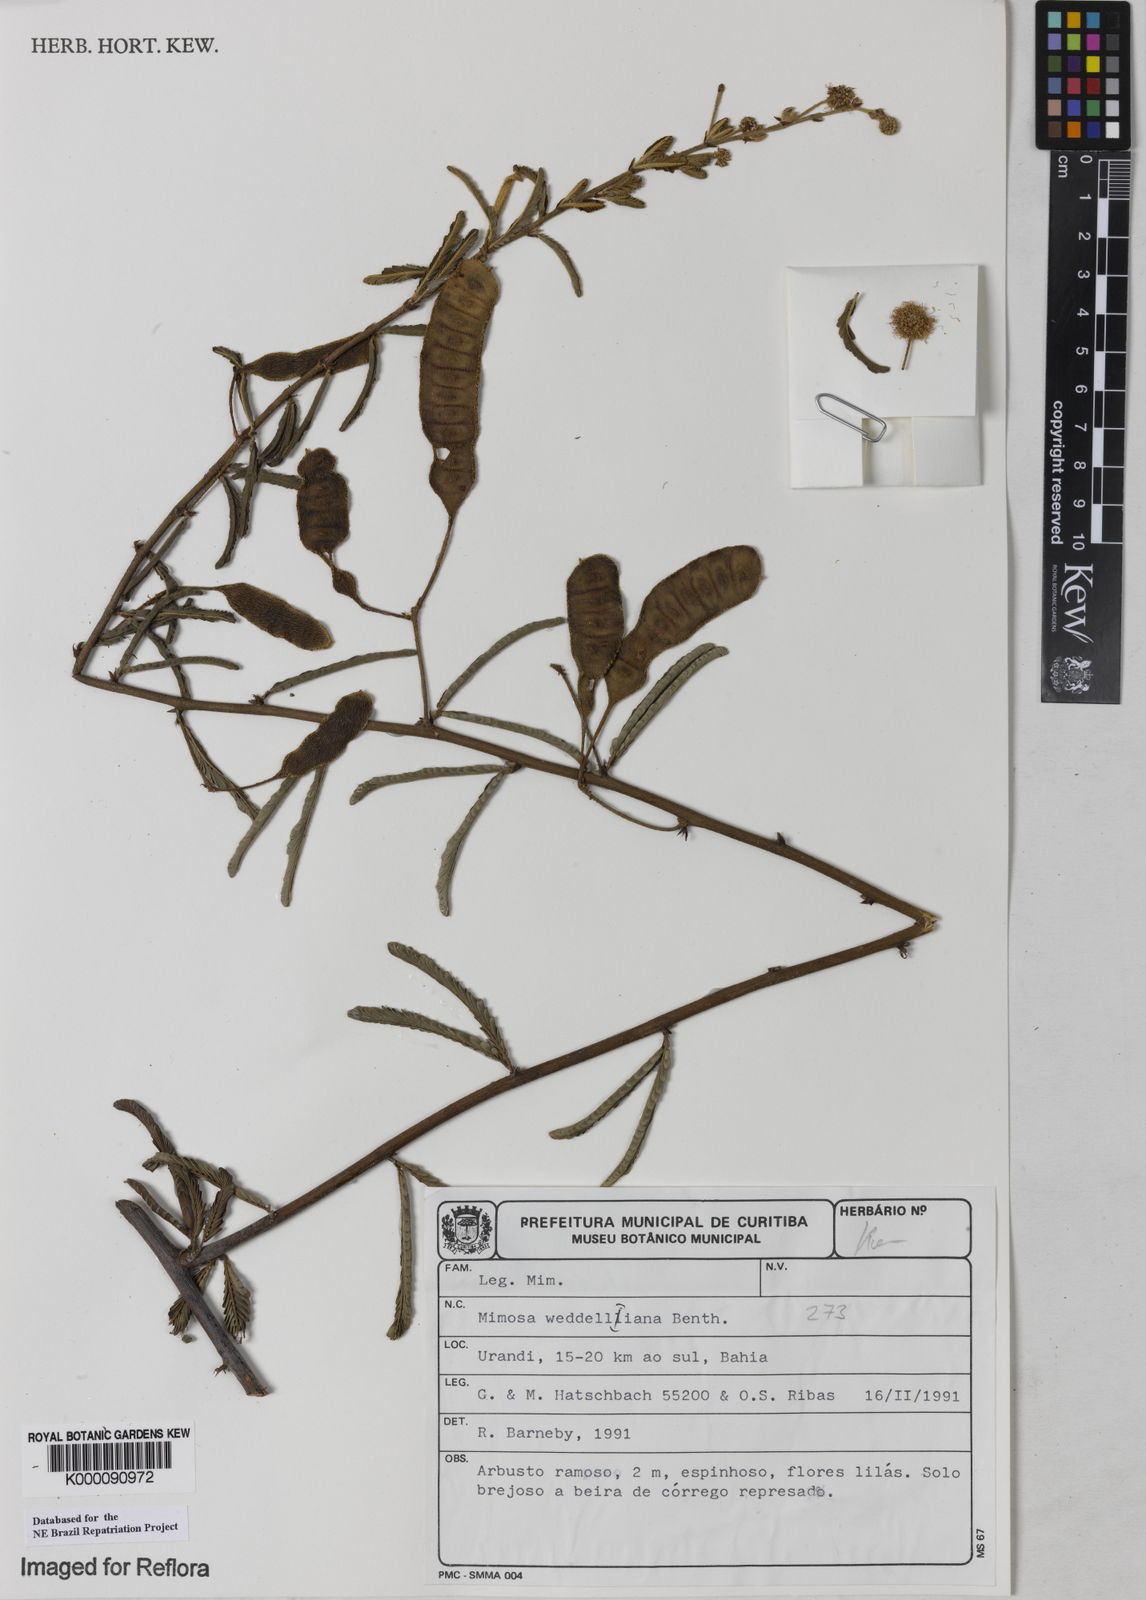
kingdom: Plantae
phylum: Tracheophyta
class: Magnoliopsida
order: Fabales
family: Fabaceae
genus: Mimosa
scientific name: Mimosa weddelliana
